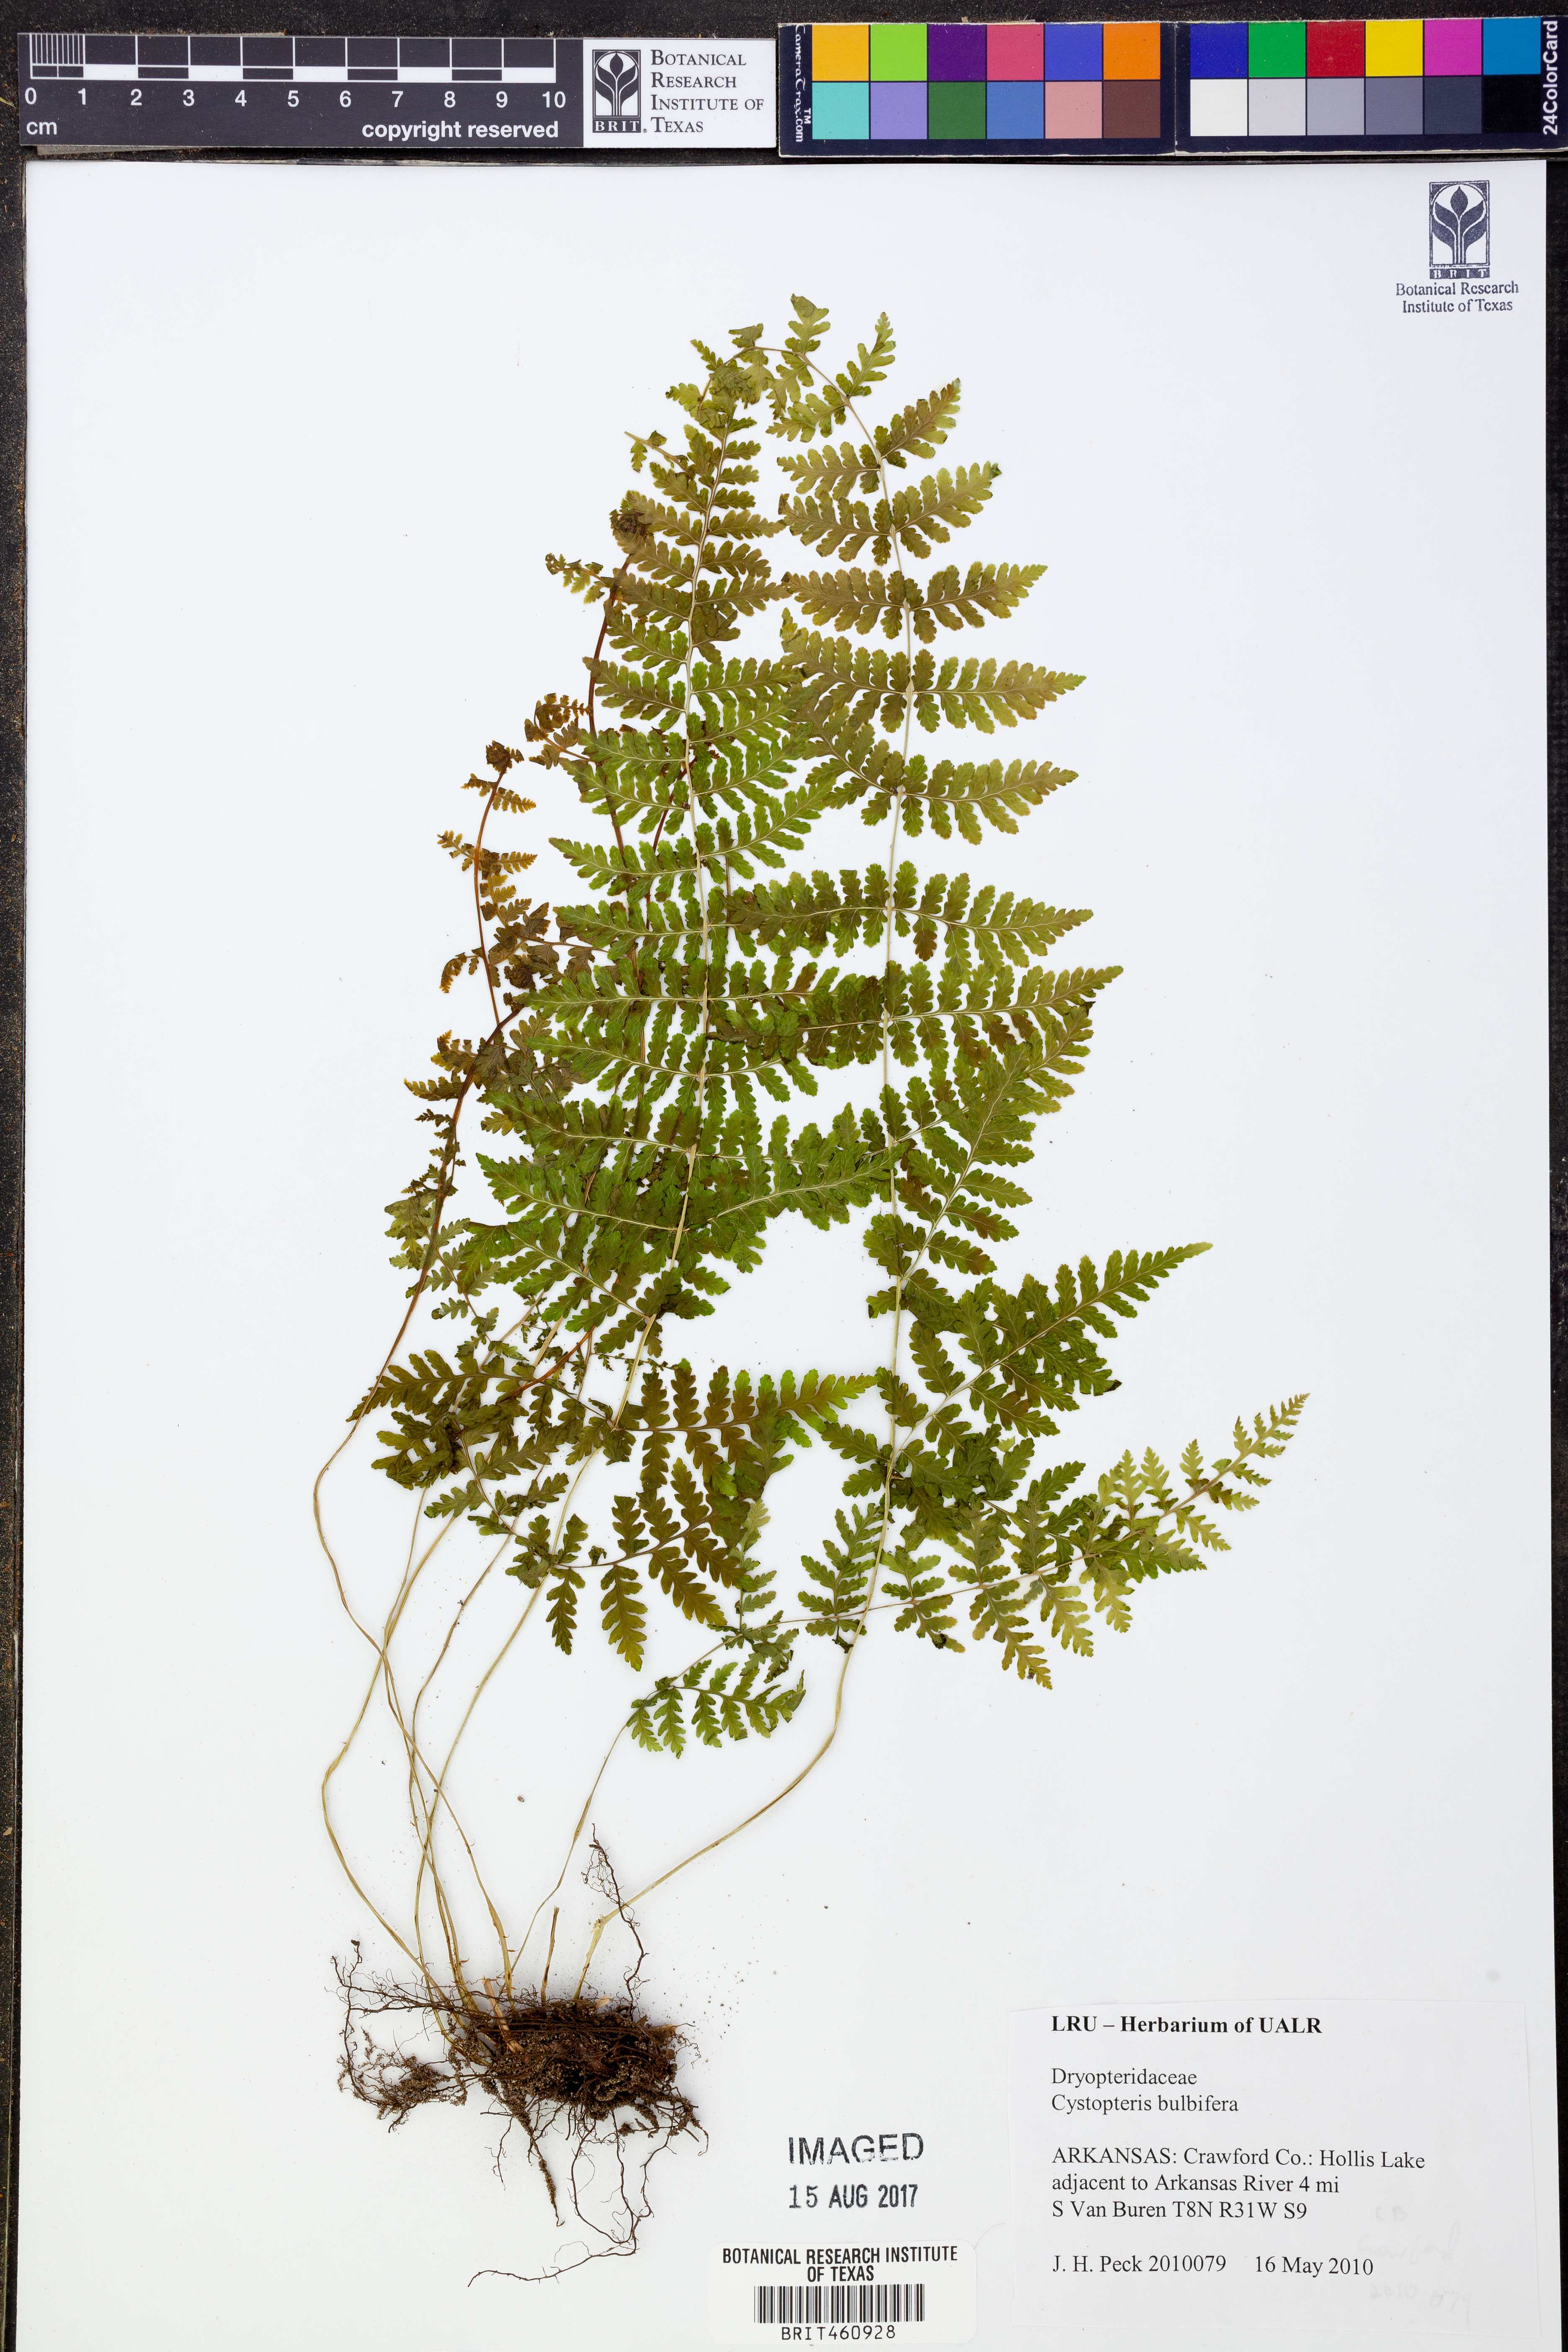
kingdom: Plantae
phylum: Tracheophyta
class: Polypodiopsida
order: Polypodiales
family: Cystopteridaceae
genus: Cystopteris
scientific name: Cystopteris bulbifera
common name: Bulblet bladder fern
